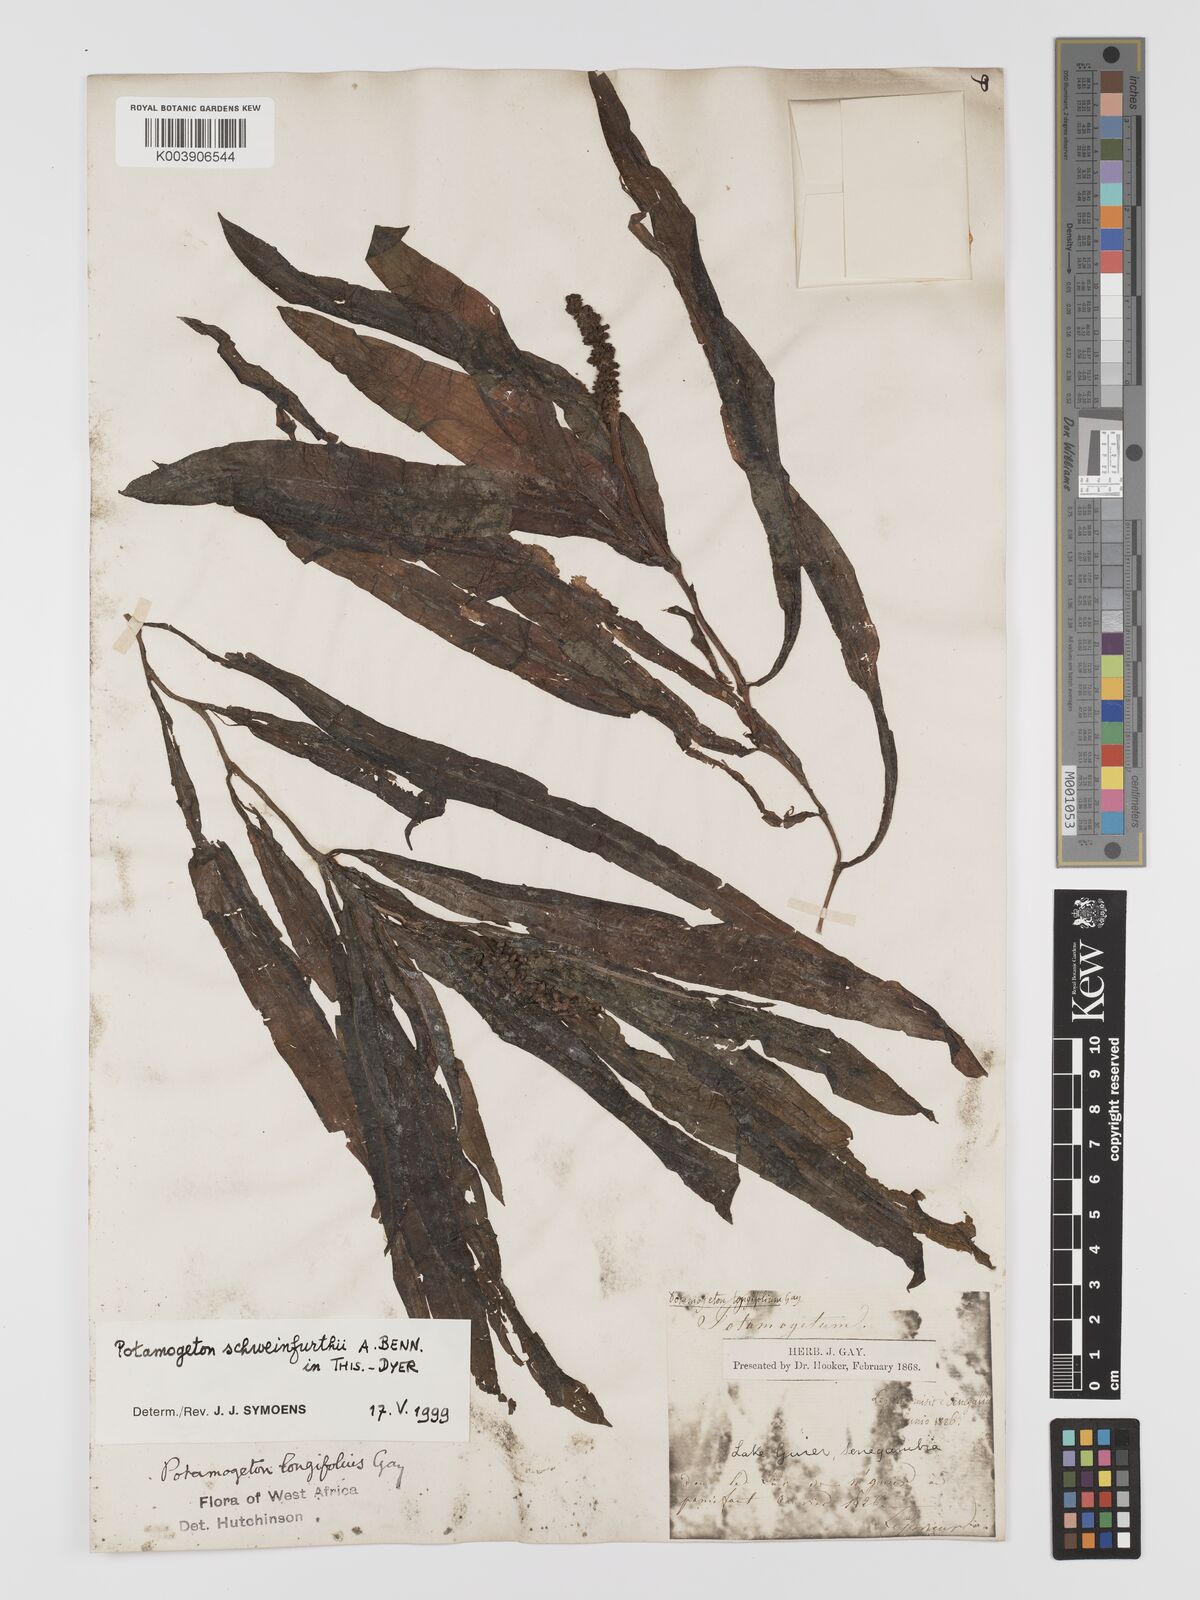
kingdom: Plantae
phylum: Tracheophyta
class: Liliopsida
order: Alismatales
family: Potamogetonaceae
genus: Potamogeton
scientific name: Potamogeton schweinfurthii
